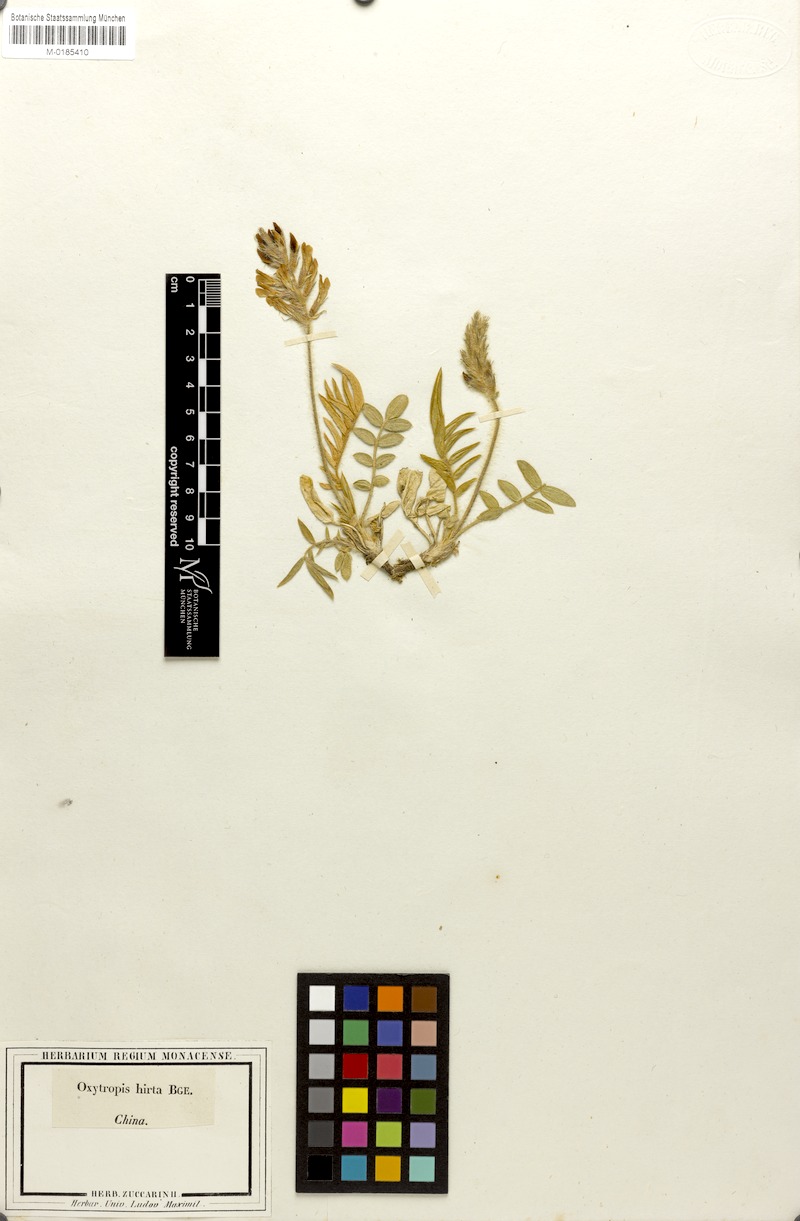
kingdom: Plantae
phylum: Tracheophyta
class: Magnoliopsida
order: Fabales
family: Fabaceae
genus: Oxytropis
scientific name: Oxytropis hirta
